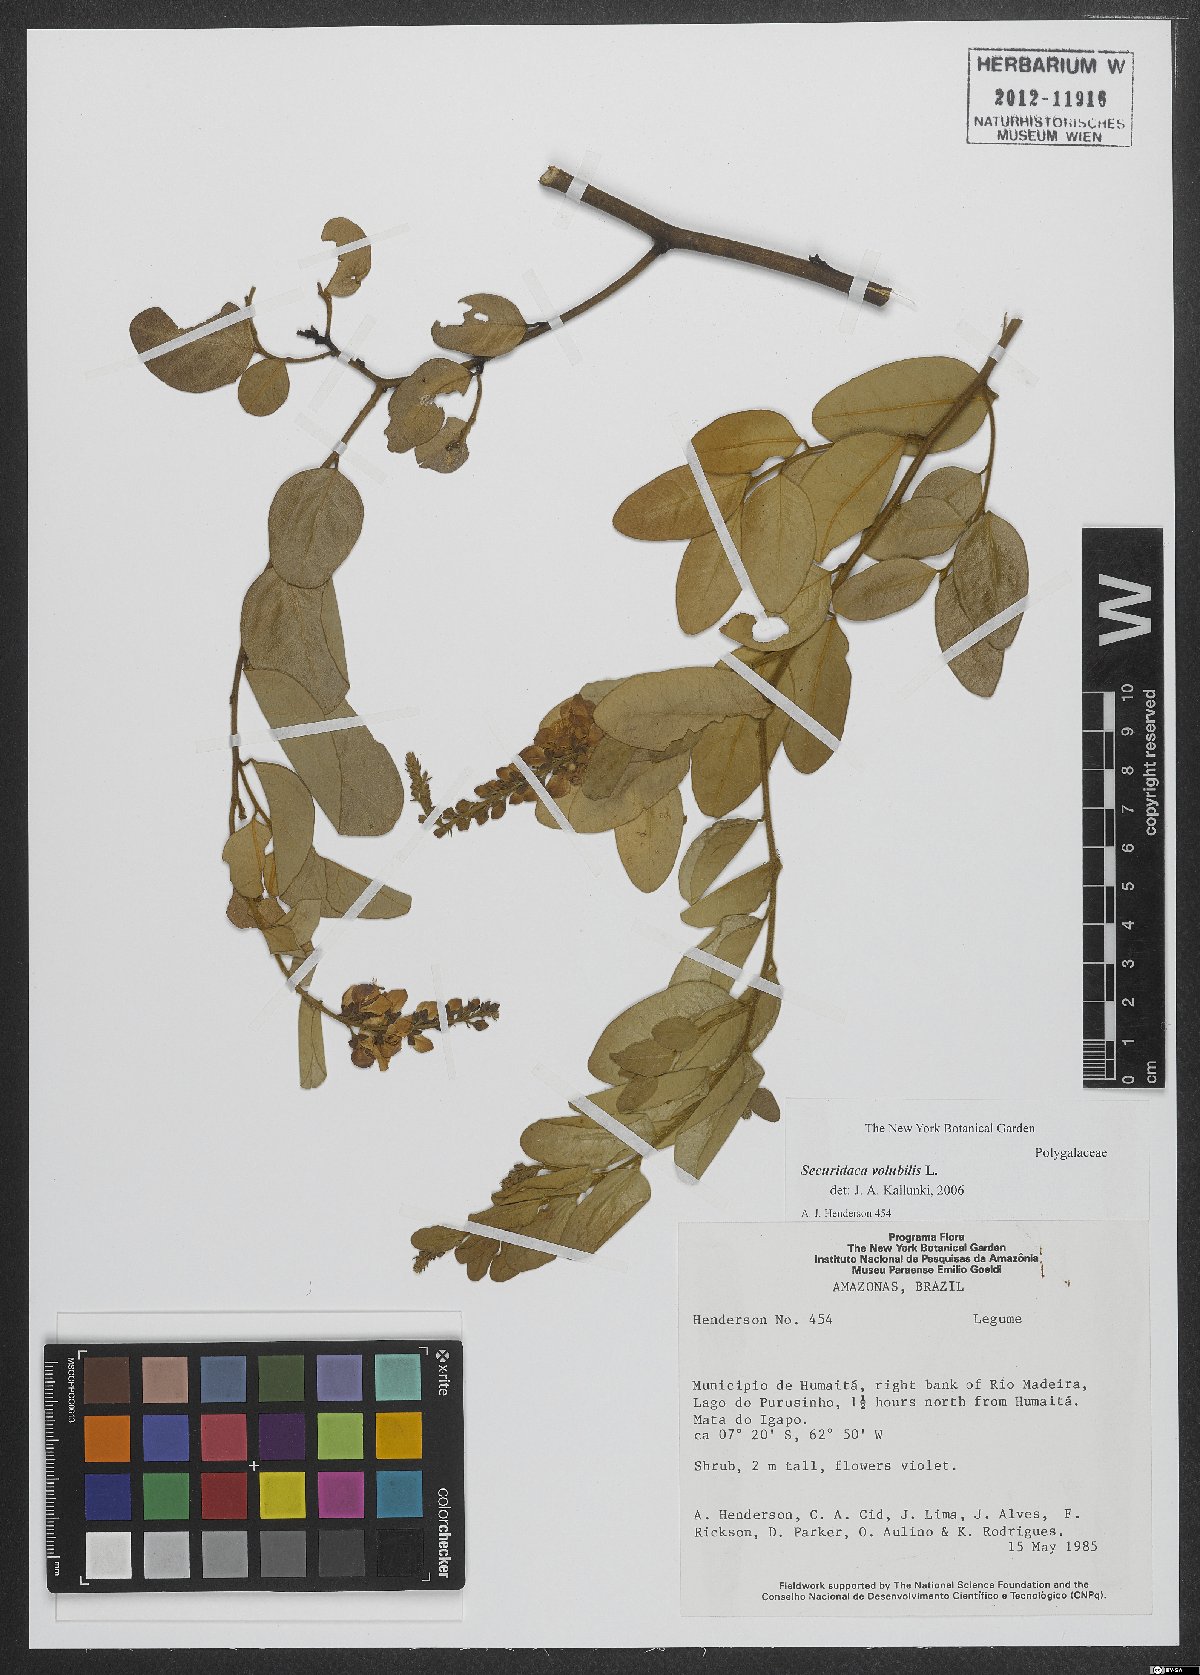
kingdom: Plantae
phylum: Tracheophyta
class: Magnoliopsida
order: Fabales
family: Polygalaceae
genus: Securidaca
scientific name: Securidaca
